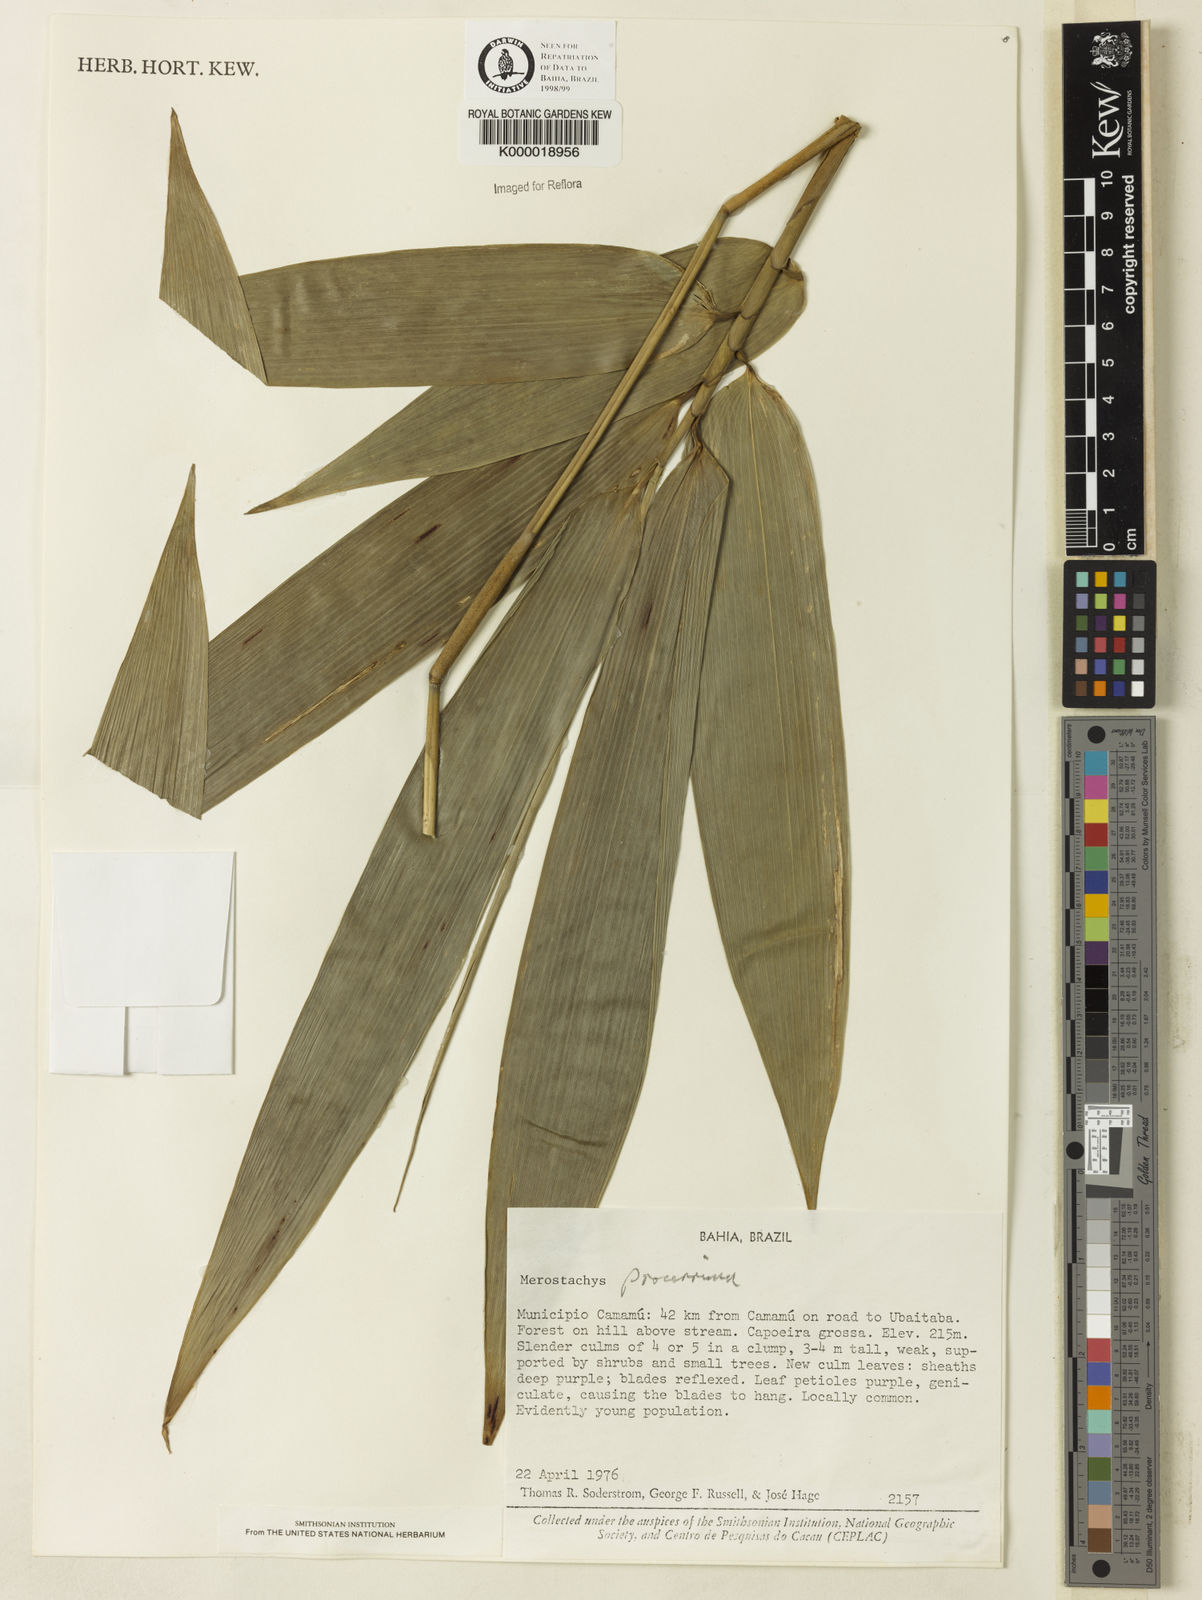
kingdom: Plantae
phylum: Tracheophyta
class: Liliopsida
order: Poales
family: Poaceae
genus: Merostachys
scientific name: Merostachys procerrima
